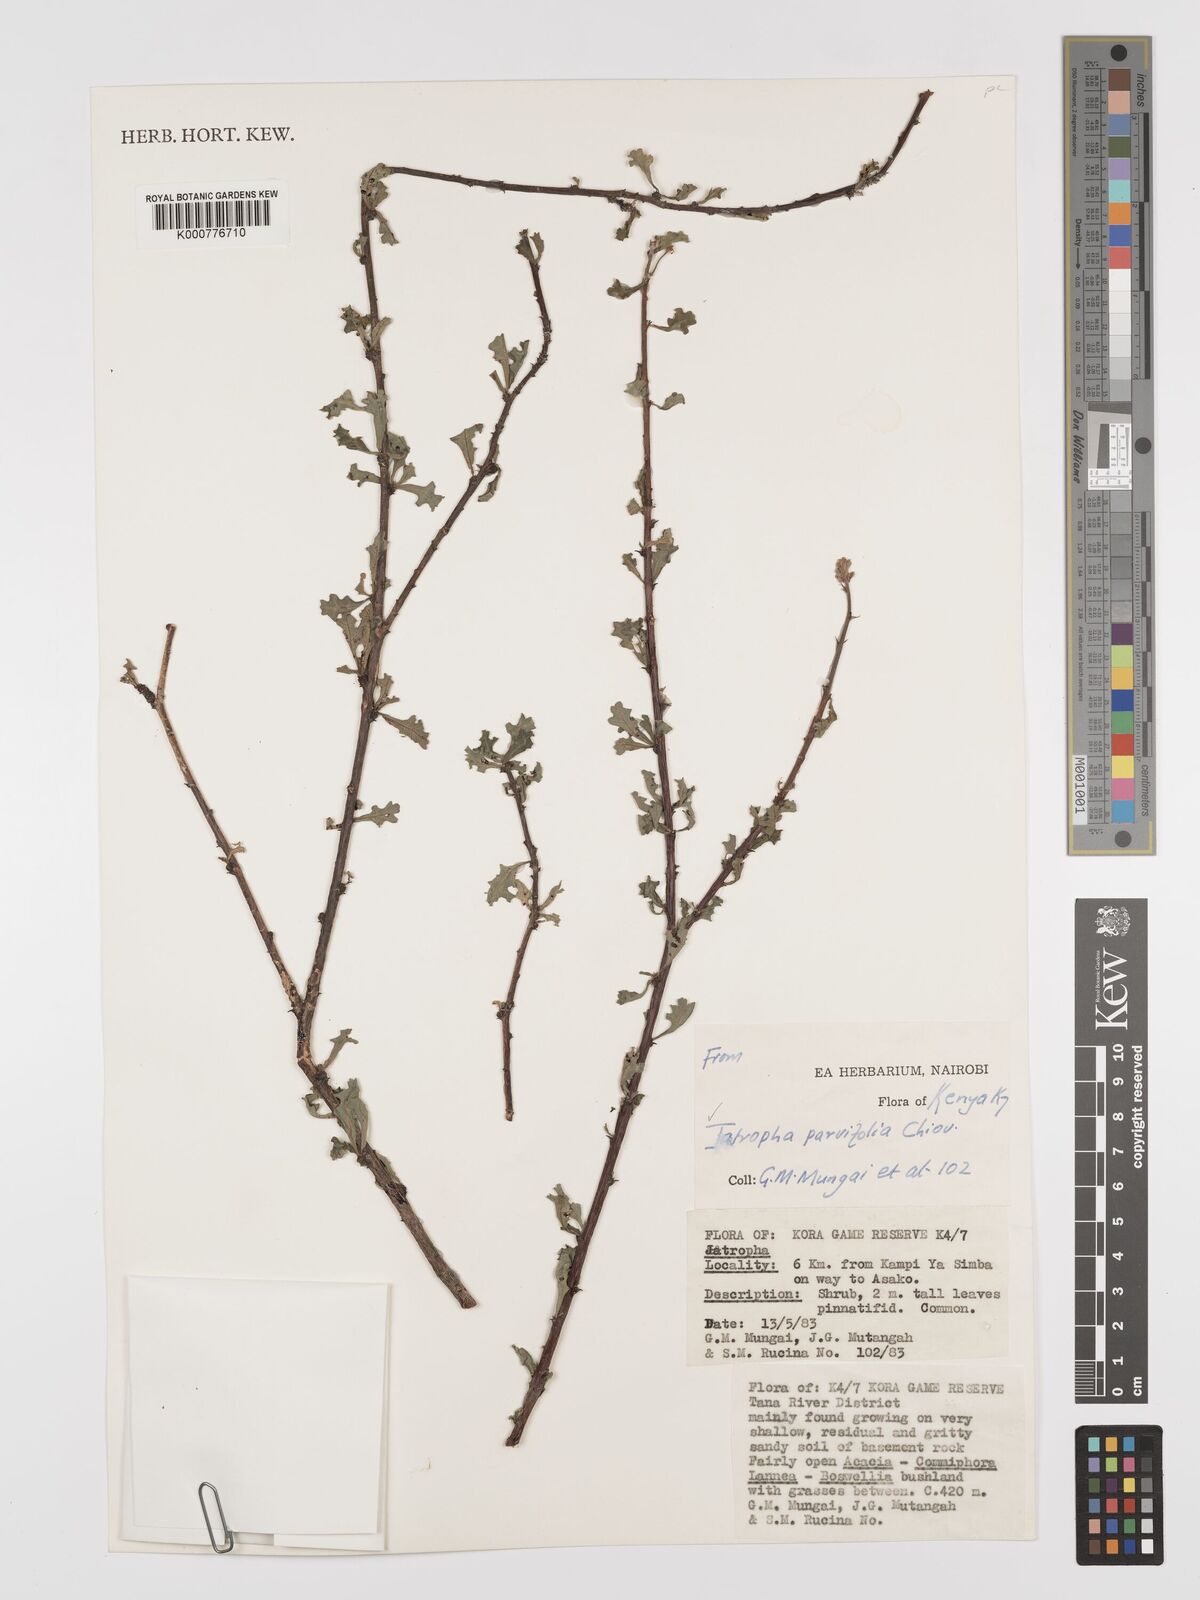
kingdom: Plantae
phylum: Tracheophyta
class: Magnoliopsida
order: Malpighiales
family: Euphorbiaceae
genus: Jatropha
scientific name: Jatropha rivae
